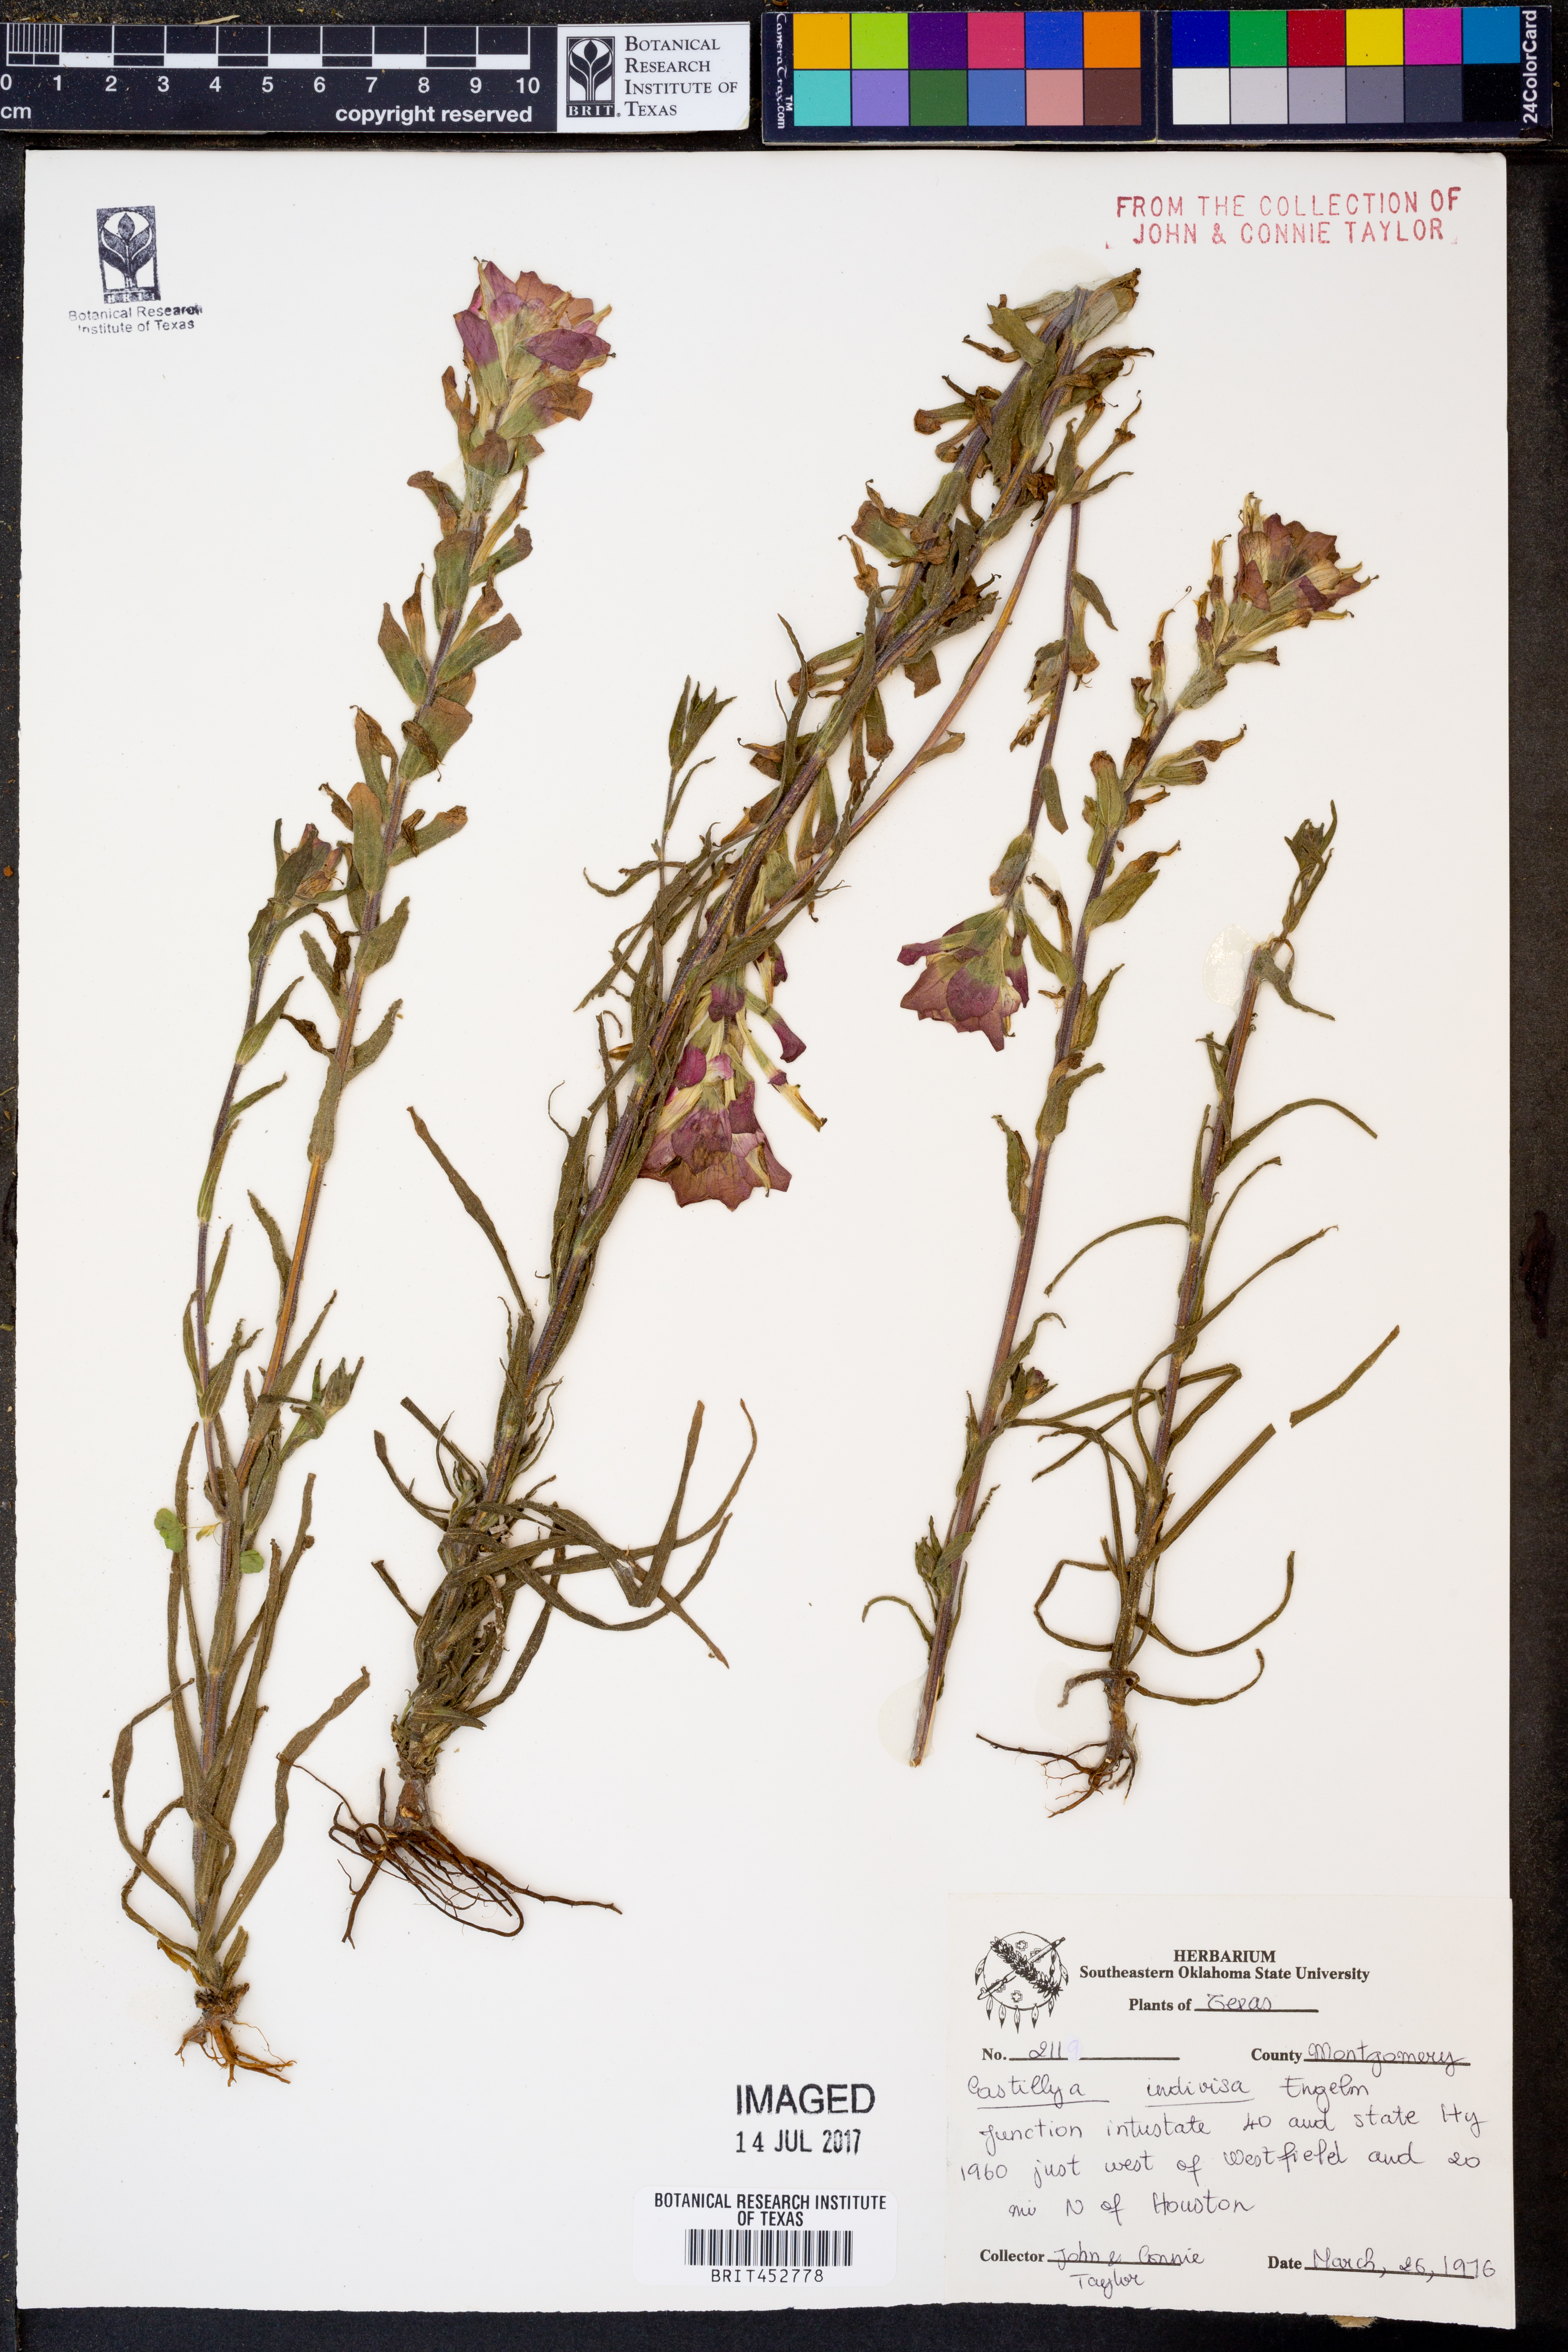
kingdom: Plantae
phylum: Tracheophyta
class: Magnoliopsida
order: Lamiales
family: Orobanchaceae
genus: Castilleja
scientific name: Castilleja indivisa
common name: Texas paintbrush
